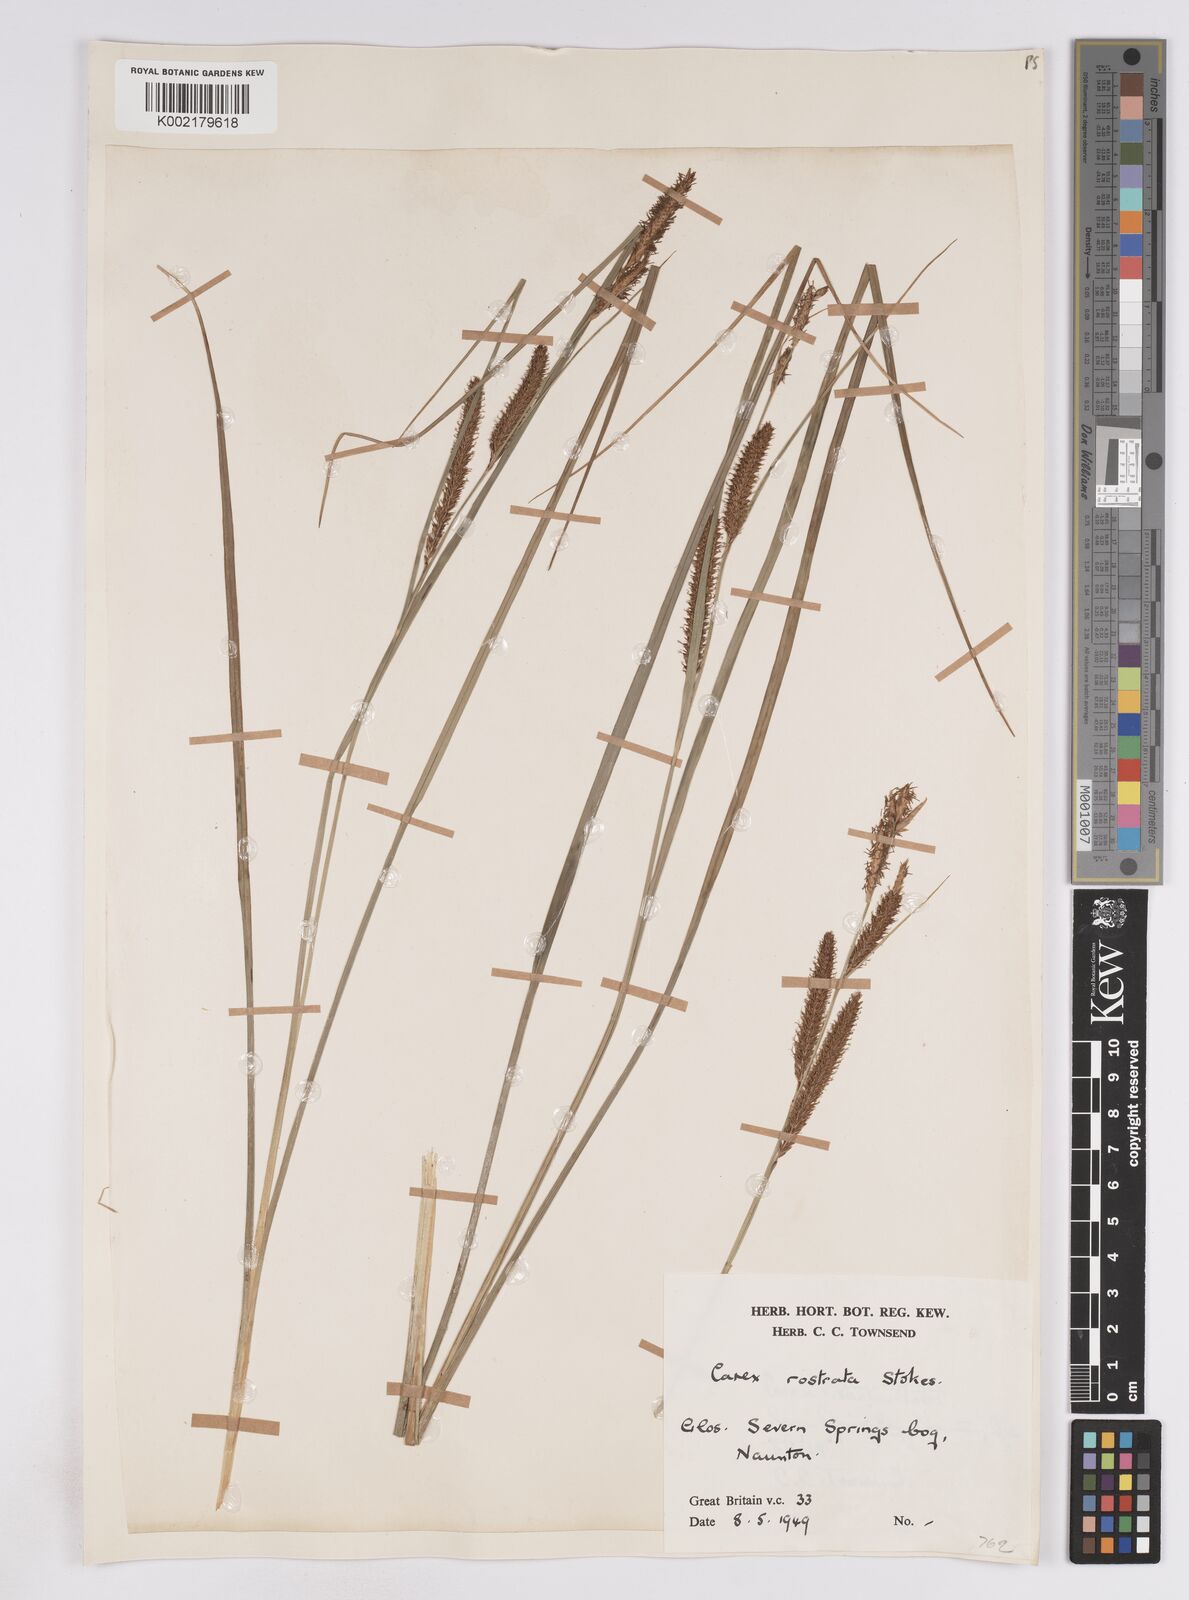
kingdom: Plantae
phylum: Tracheophyta
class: Liliopsida
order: Poales
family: Cyperaceae
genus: Carex
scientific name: Carex rostrata
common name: Bottle sedge
